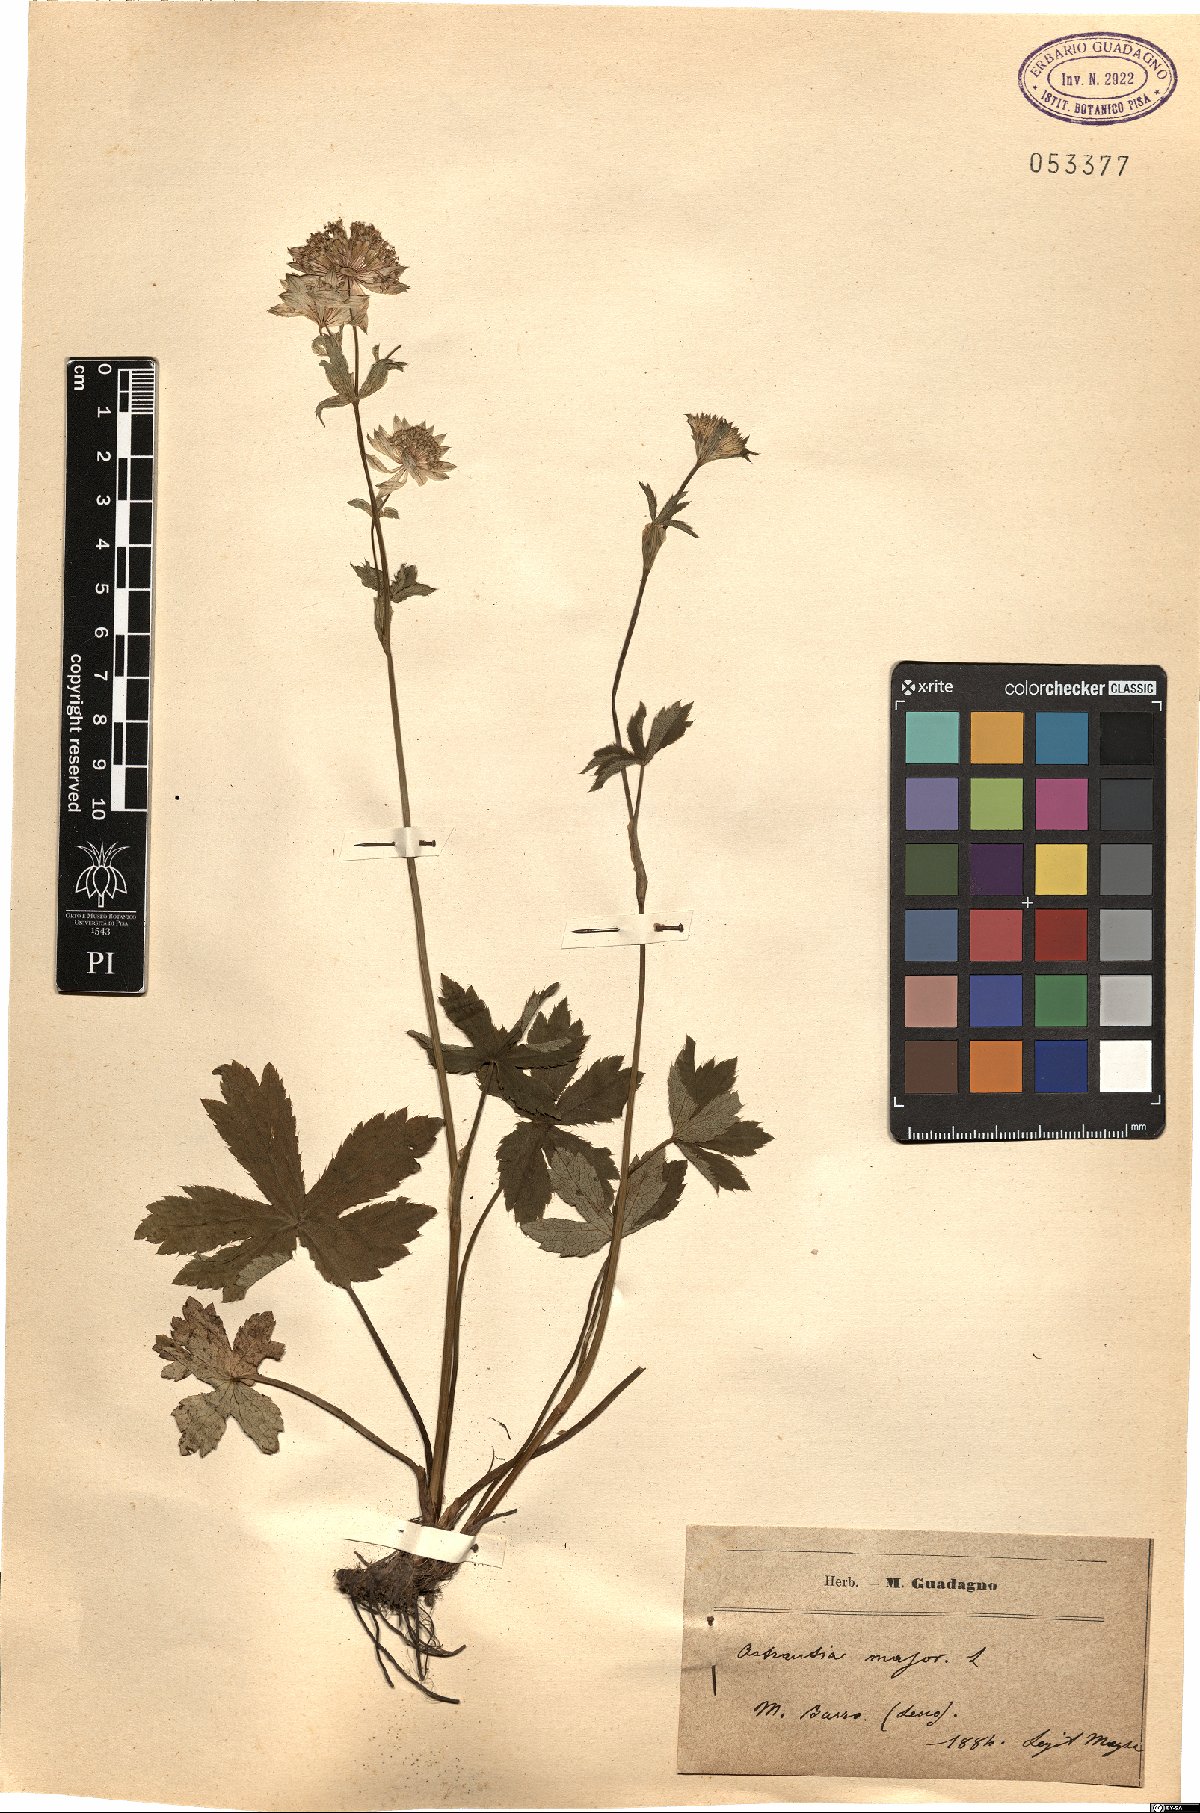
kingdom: Plantae
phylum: Tracheophyta
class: Magnoliopsida
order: Apiales
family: Apiaceae
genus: Astrantia
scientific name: Astrantia major
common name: Greater masterwort
